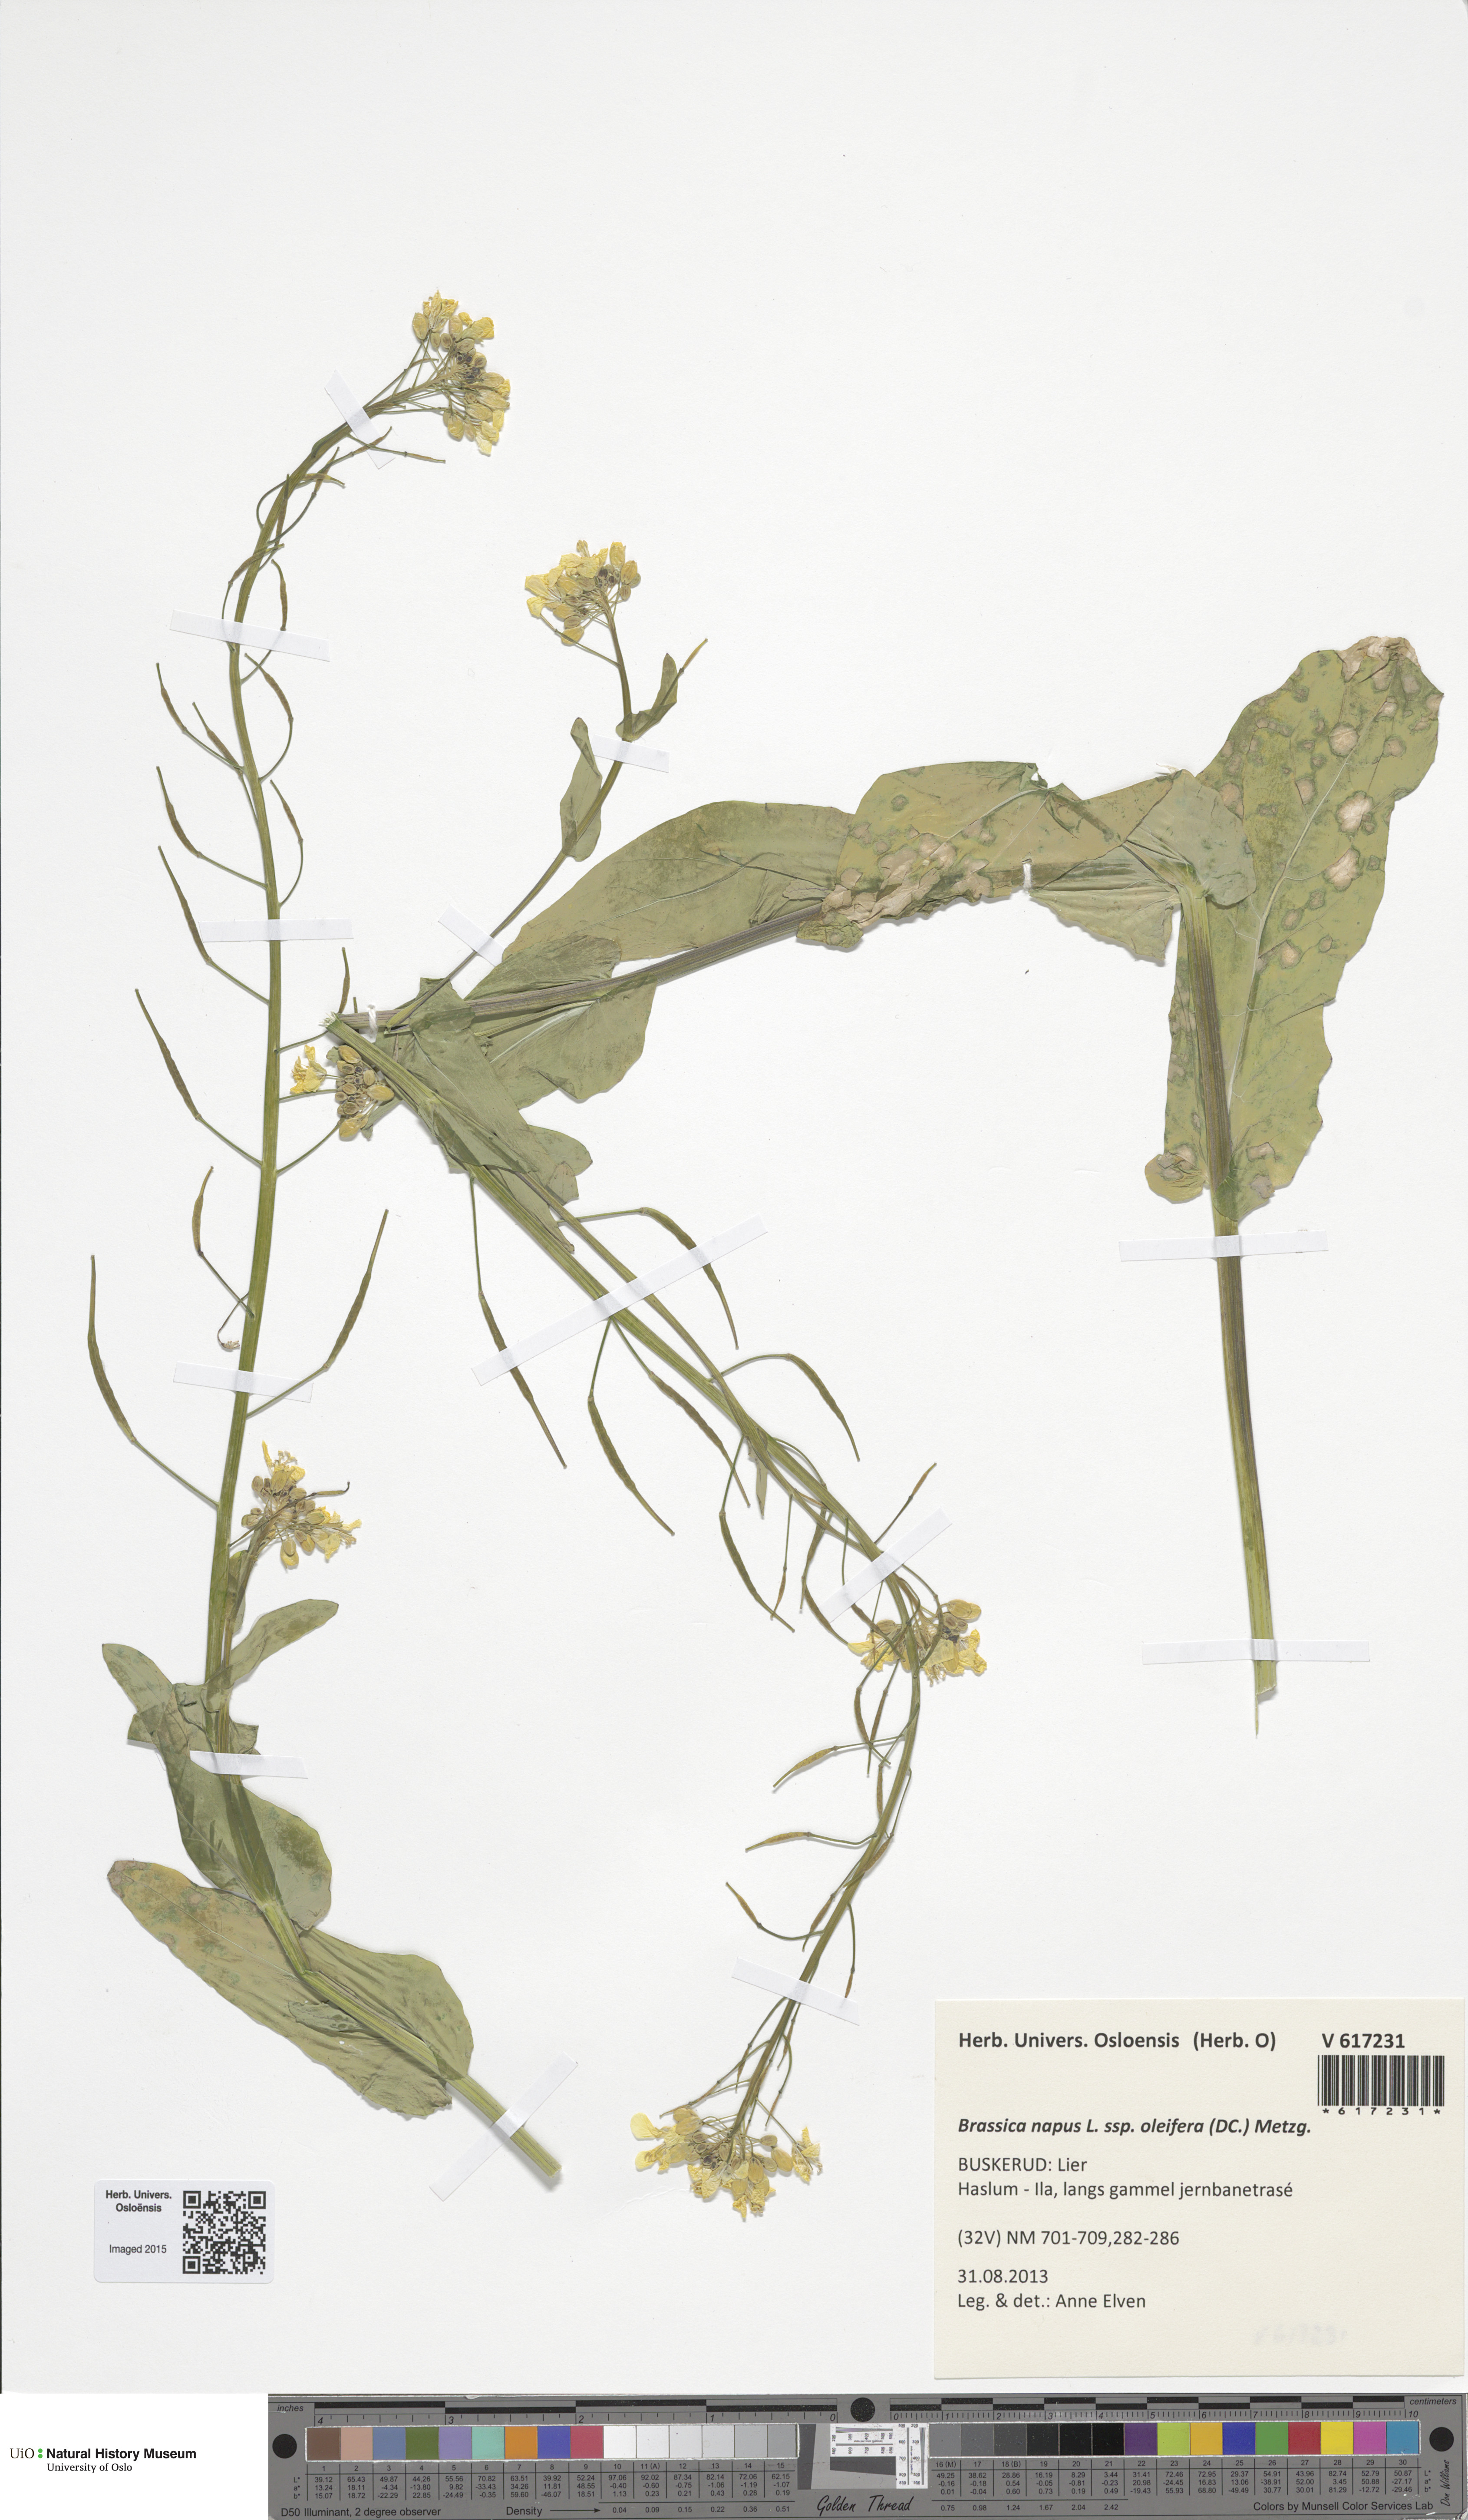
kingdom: Plantae
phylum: Tracheophyta
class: Magnoliopsida
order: Brassicales
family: Brassicaceae
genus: Brassica
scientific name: Brassica napus
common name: Rape
